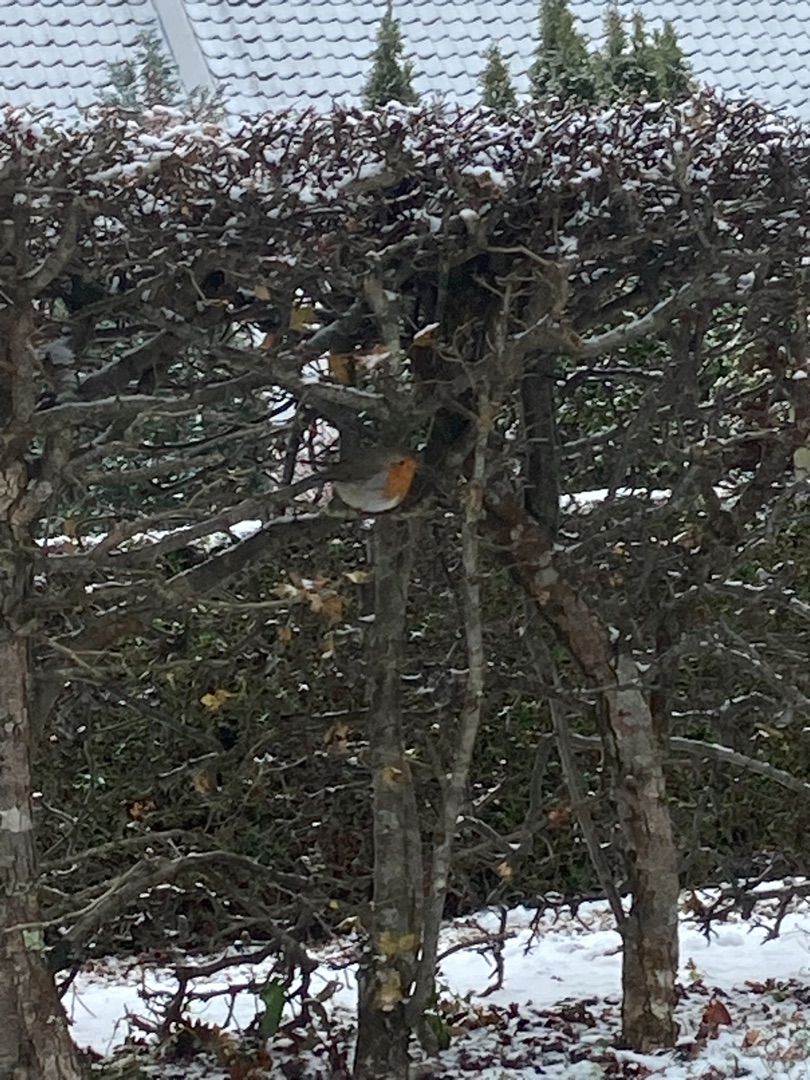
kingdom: Animalia
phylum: Chordata
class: Aves
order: Passeriformes
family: Muscicapidae
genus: Erithacus
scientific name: Erithacus rubecula
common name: Rødhals/rødkælk
